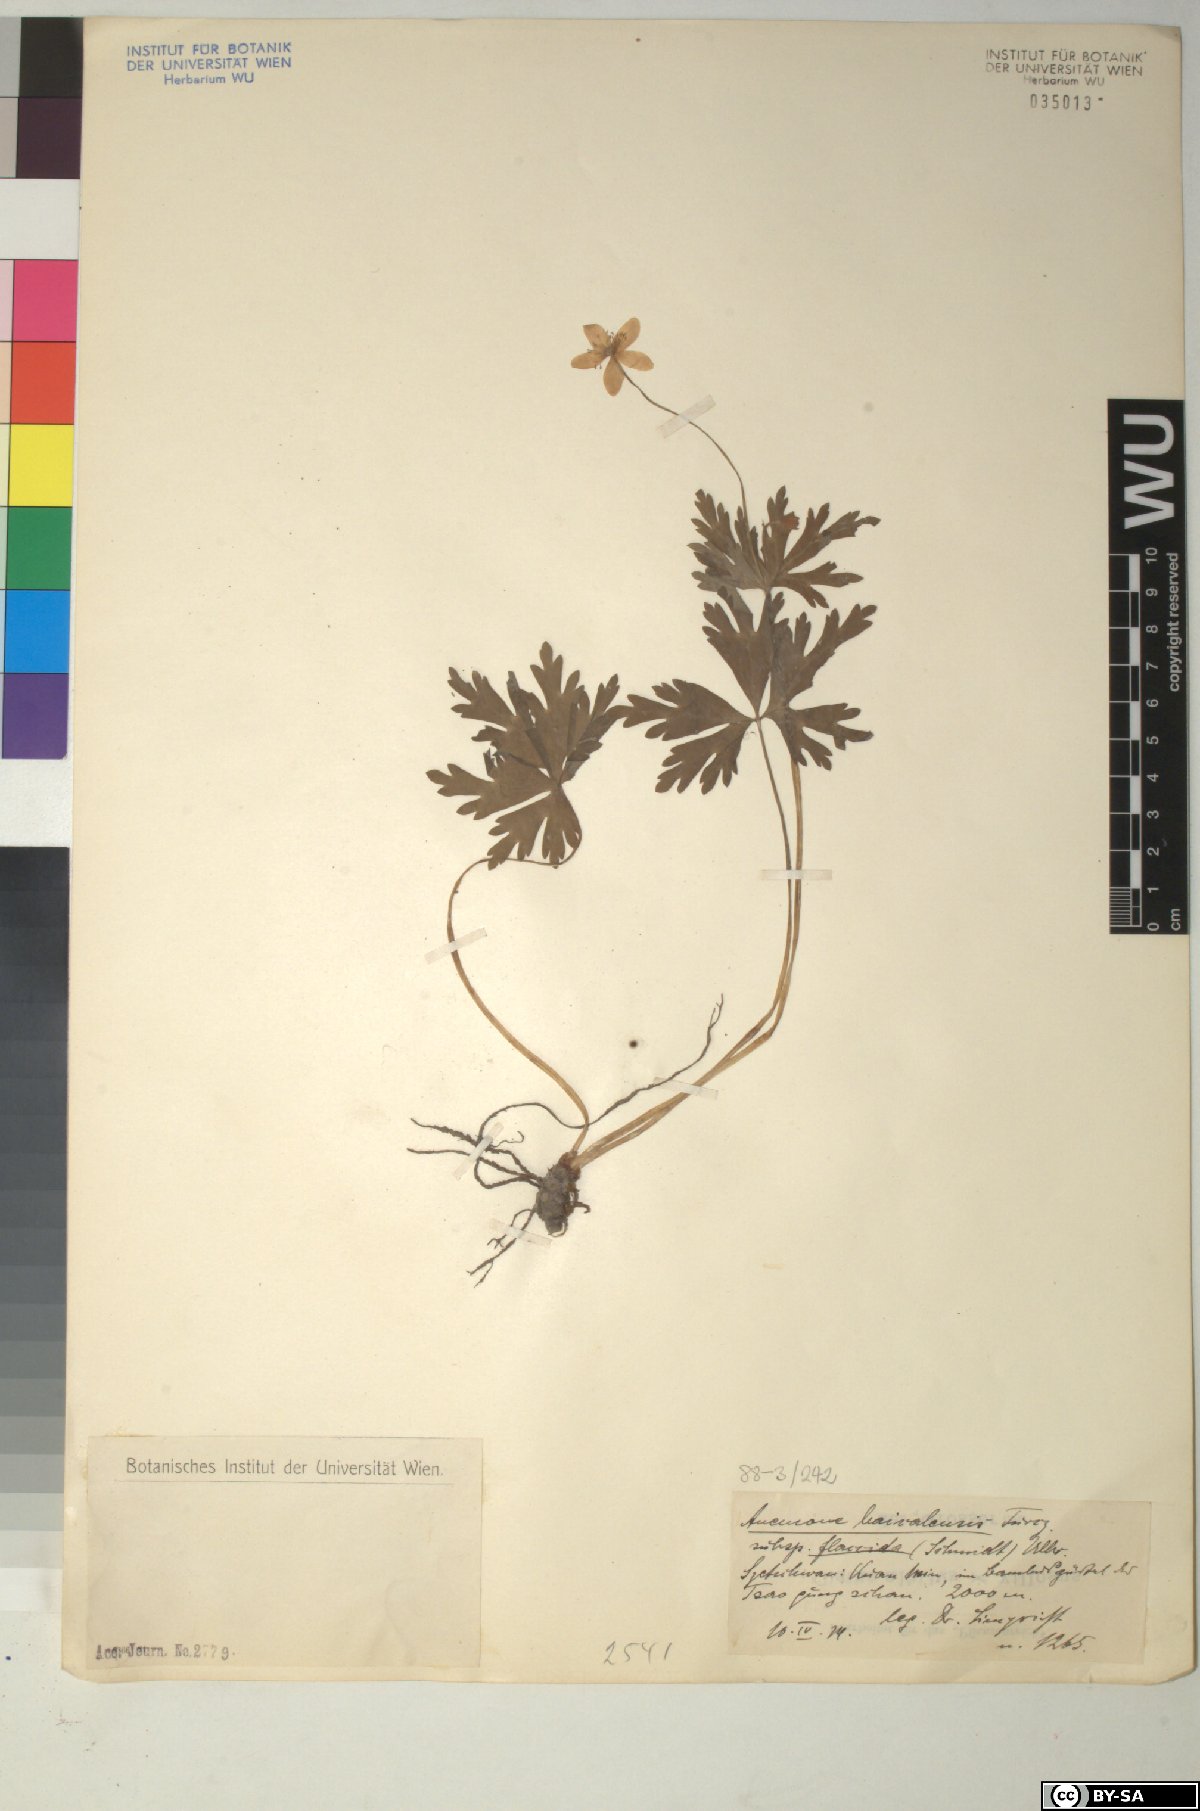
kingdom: Plantae
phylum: Tracheophyta
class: Magnoliopsida
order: Ranunculales
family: Ranunculaceae
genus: Anemonastrum
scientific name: Anemonastrum baicalense
